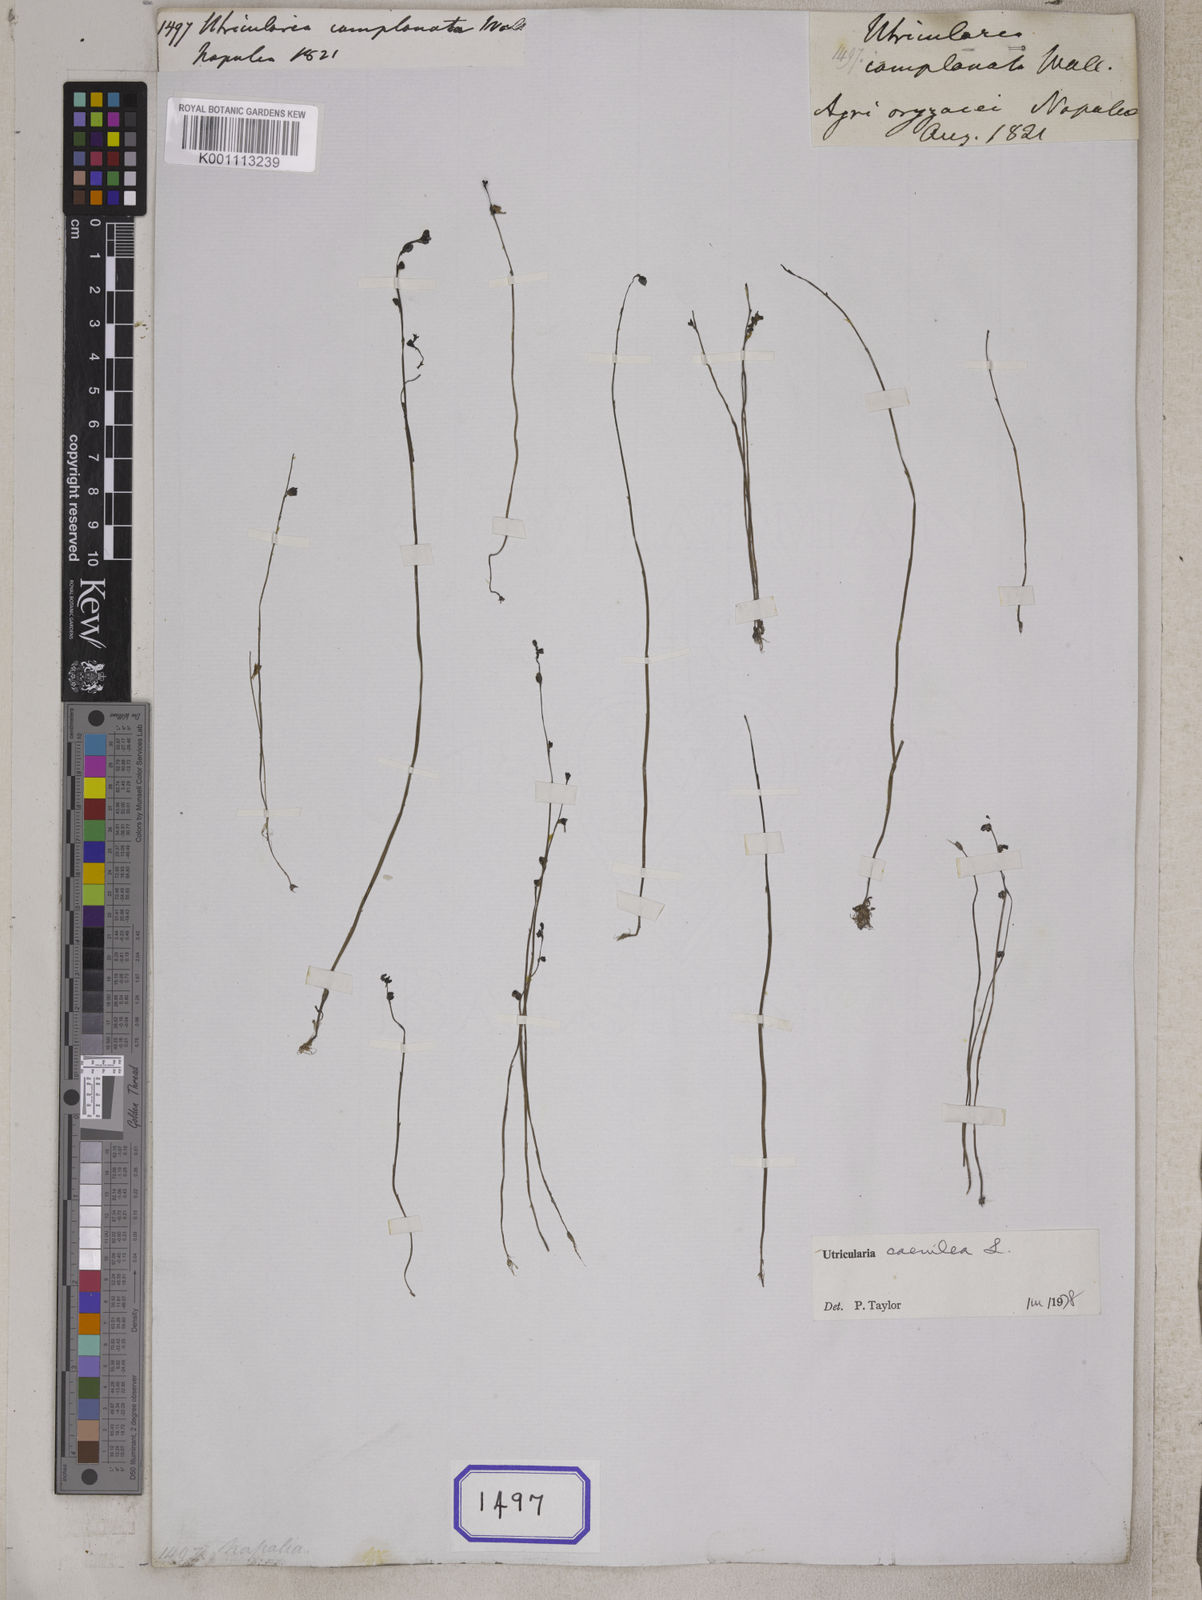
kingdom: Plantae
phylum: Tracheophyta
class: Magnoliopsida
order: Lamiales
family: Lentibulariaceae
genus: Utricularia
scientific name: Utricularia caerulea
